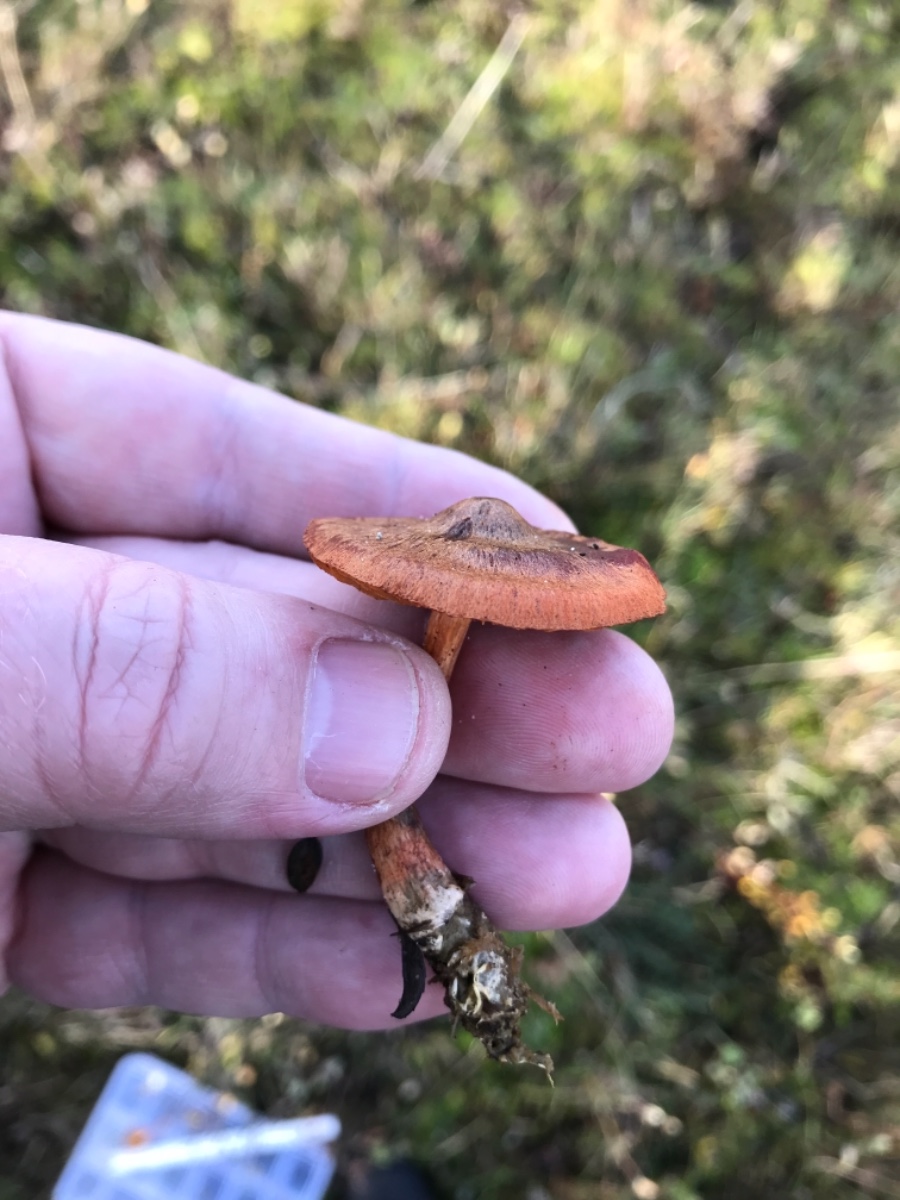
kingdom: Fungi
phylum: Basidiomycota
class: Agaricomycetes
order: Agaricales
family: Cortinariaceae
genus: Cortinarius
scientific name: Cortinarius uliginosus
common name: mose-slørhat
